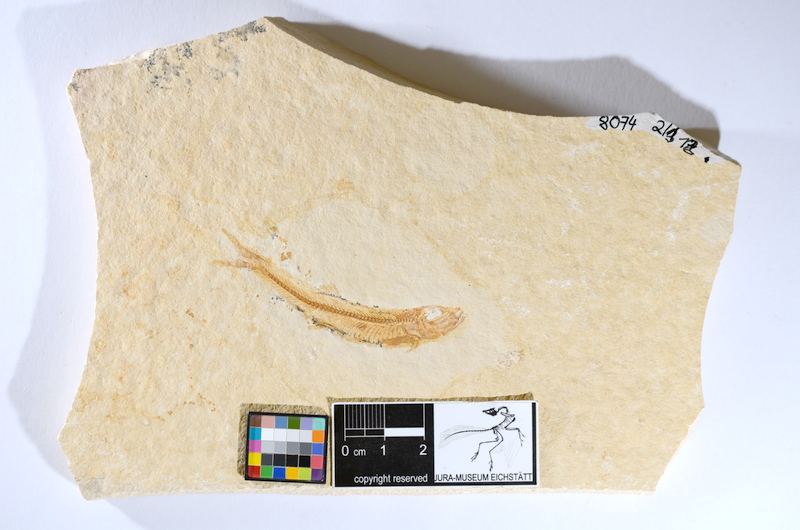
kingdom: Animalia
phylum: Chordata
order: Salmoniformes
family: Orthogonikleithridae
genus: Leptolepides
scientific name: Leptolepides sprattiformis
